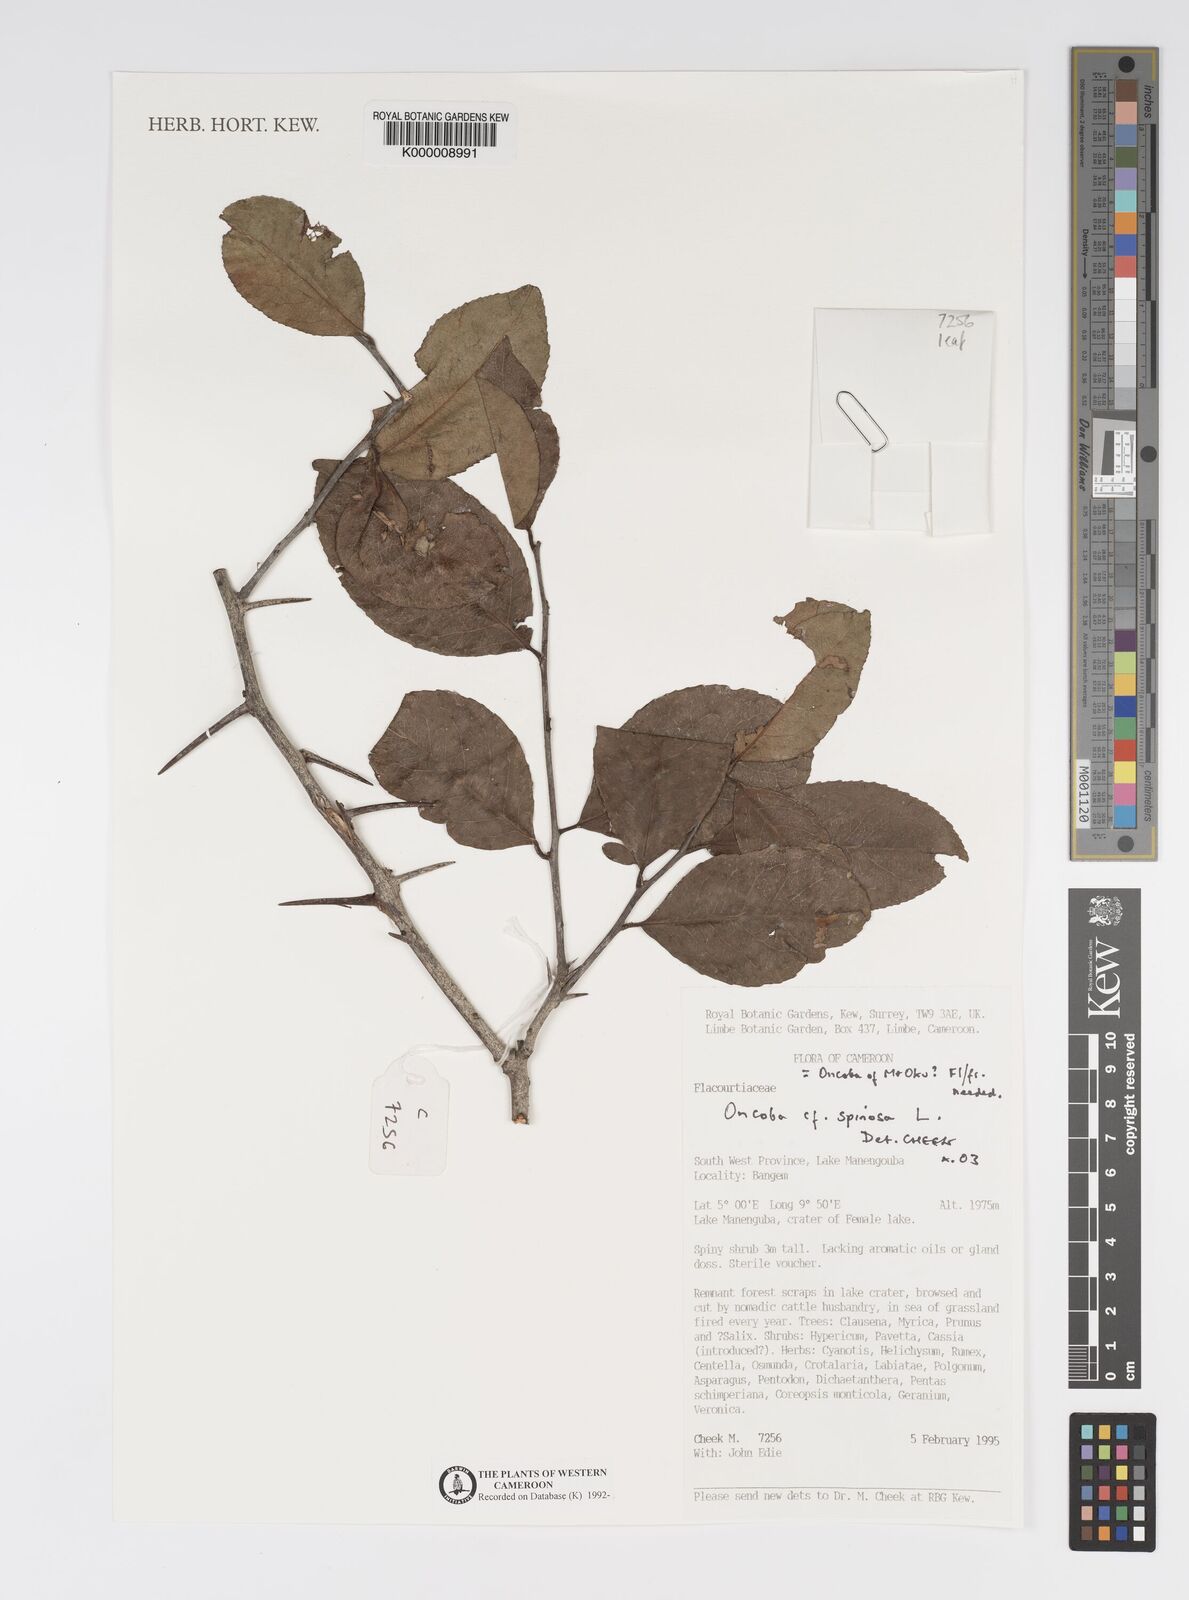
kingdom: Plantae
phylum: Tracheophyta
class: Magnoliopsida
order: Malpighiales
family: Salicaceae
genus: Oncoba
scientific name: Oncoba
